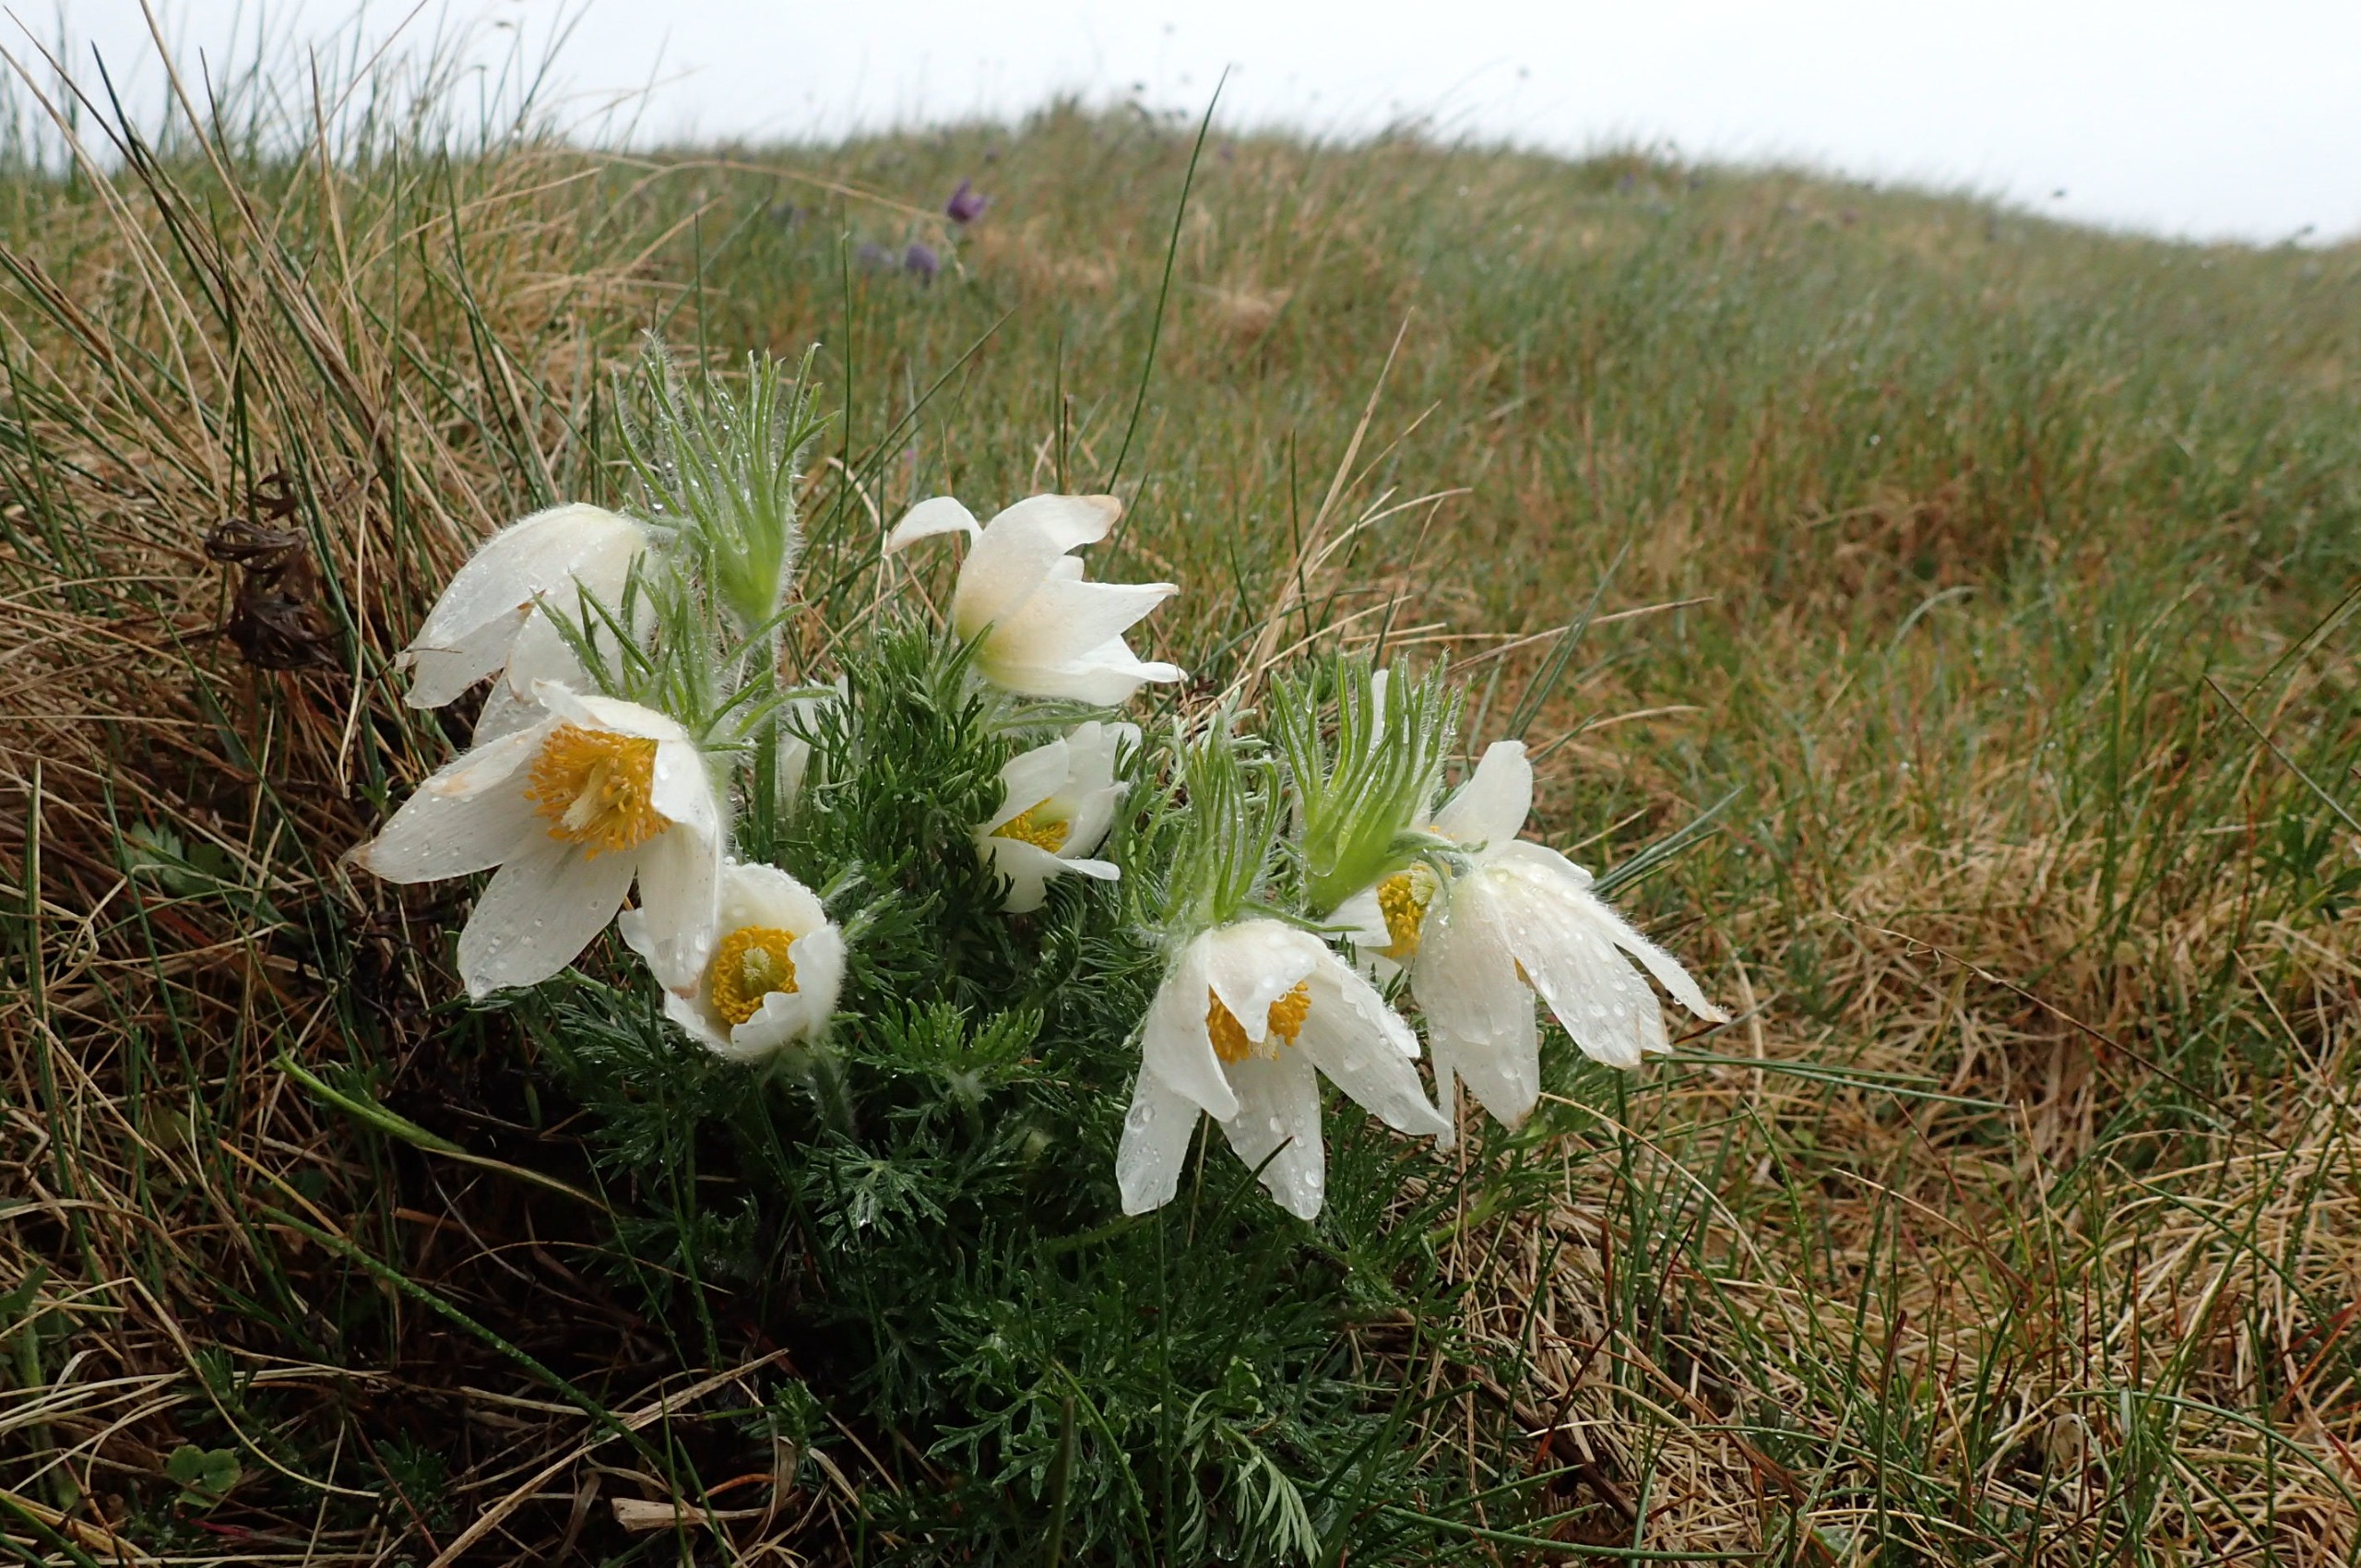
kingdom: Plantae
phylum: Tracheophyta
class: Magnoliopsida
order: Ranunculales
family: Ranunculaceae
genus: Pulsatilla
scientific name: Pulsatilla vulgaris
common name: Opret kobjælde
